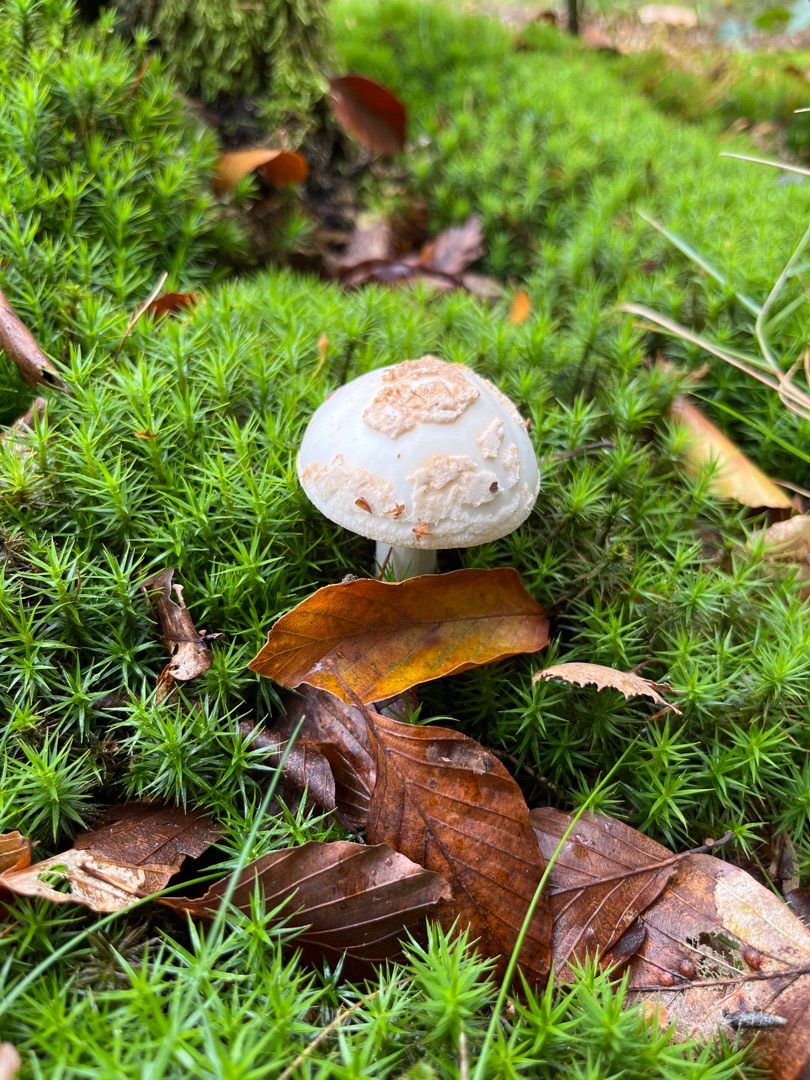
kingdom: Fungi
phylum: Basidiomycota
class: Agaricomycetes
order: Agaricales
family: Amanitaceae
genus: Amanita
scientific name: Amanita citrina
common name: Kugleknoldet fluesvamp
